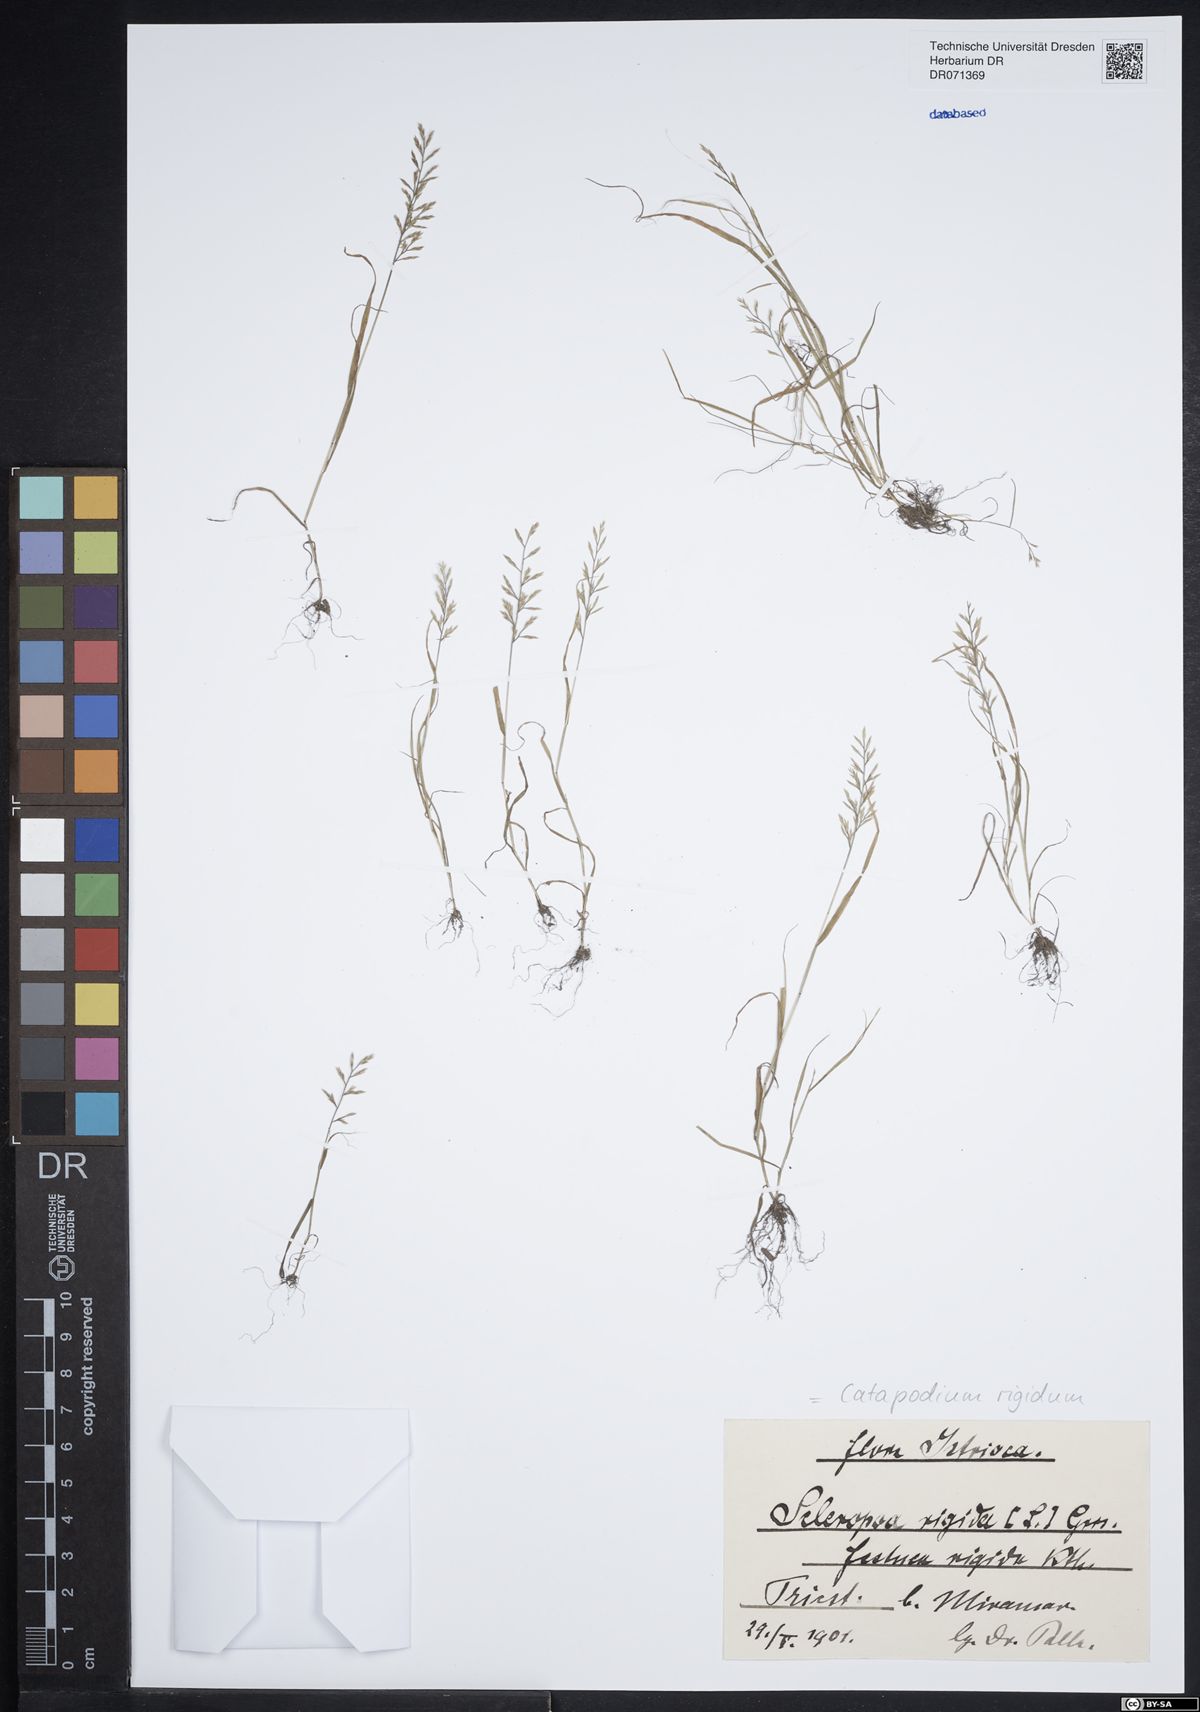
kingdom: Plantae
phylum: Tracheophyta
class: Liliopsida
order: Poales
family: Poaceae
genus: Catapodium
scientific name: Catapodium rigidum
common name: Fern-grass
